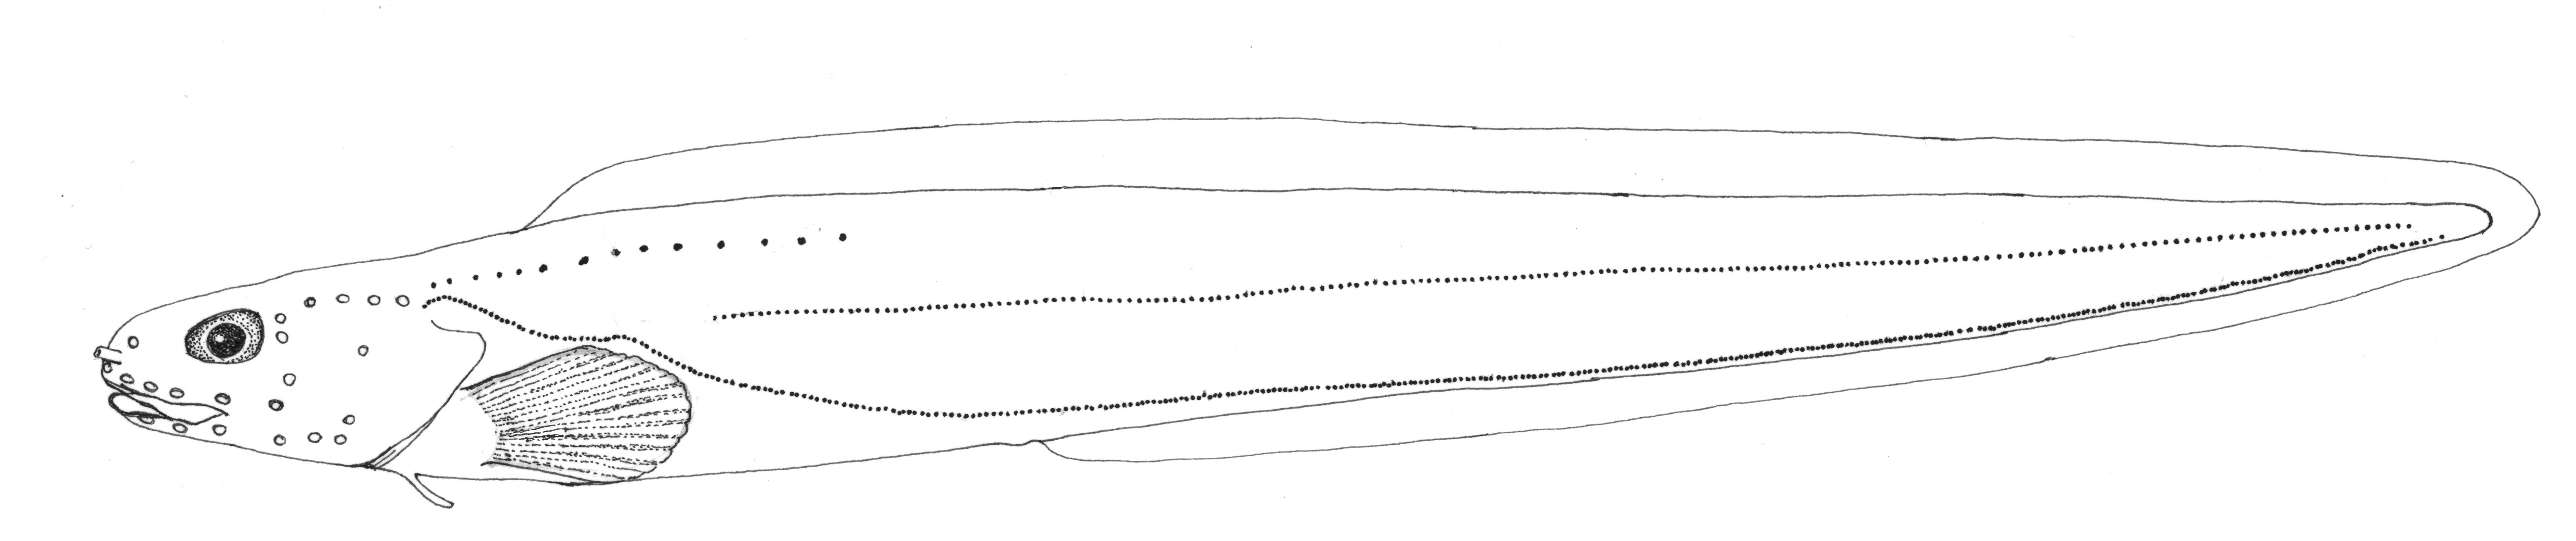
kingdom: Animalia
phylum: Chordata
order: Perciformes
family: Zoarcidae
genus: Pachycara
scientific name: Pachycara dolichaulus
